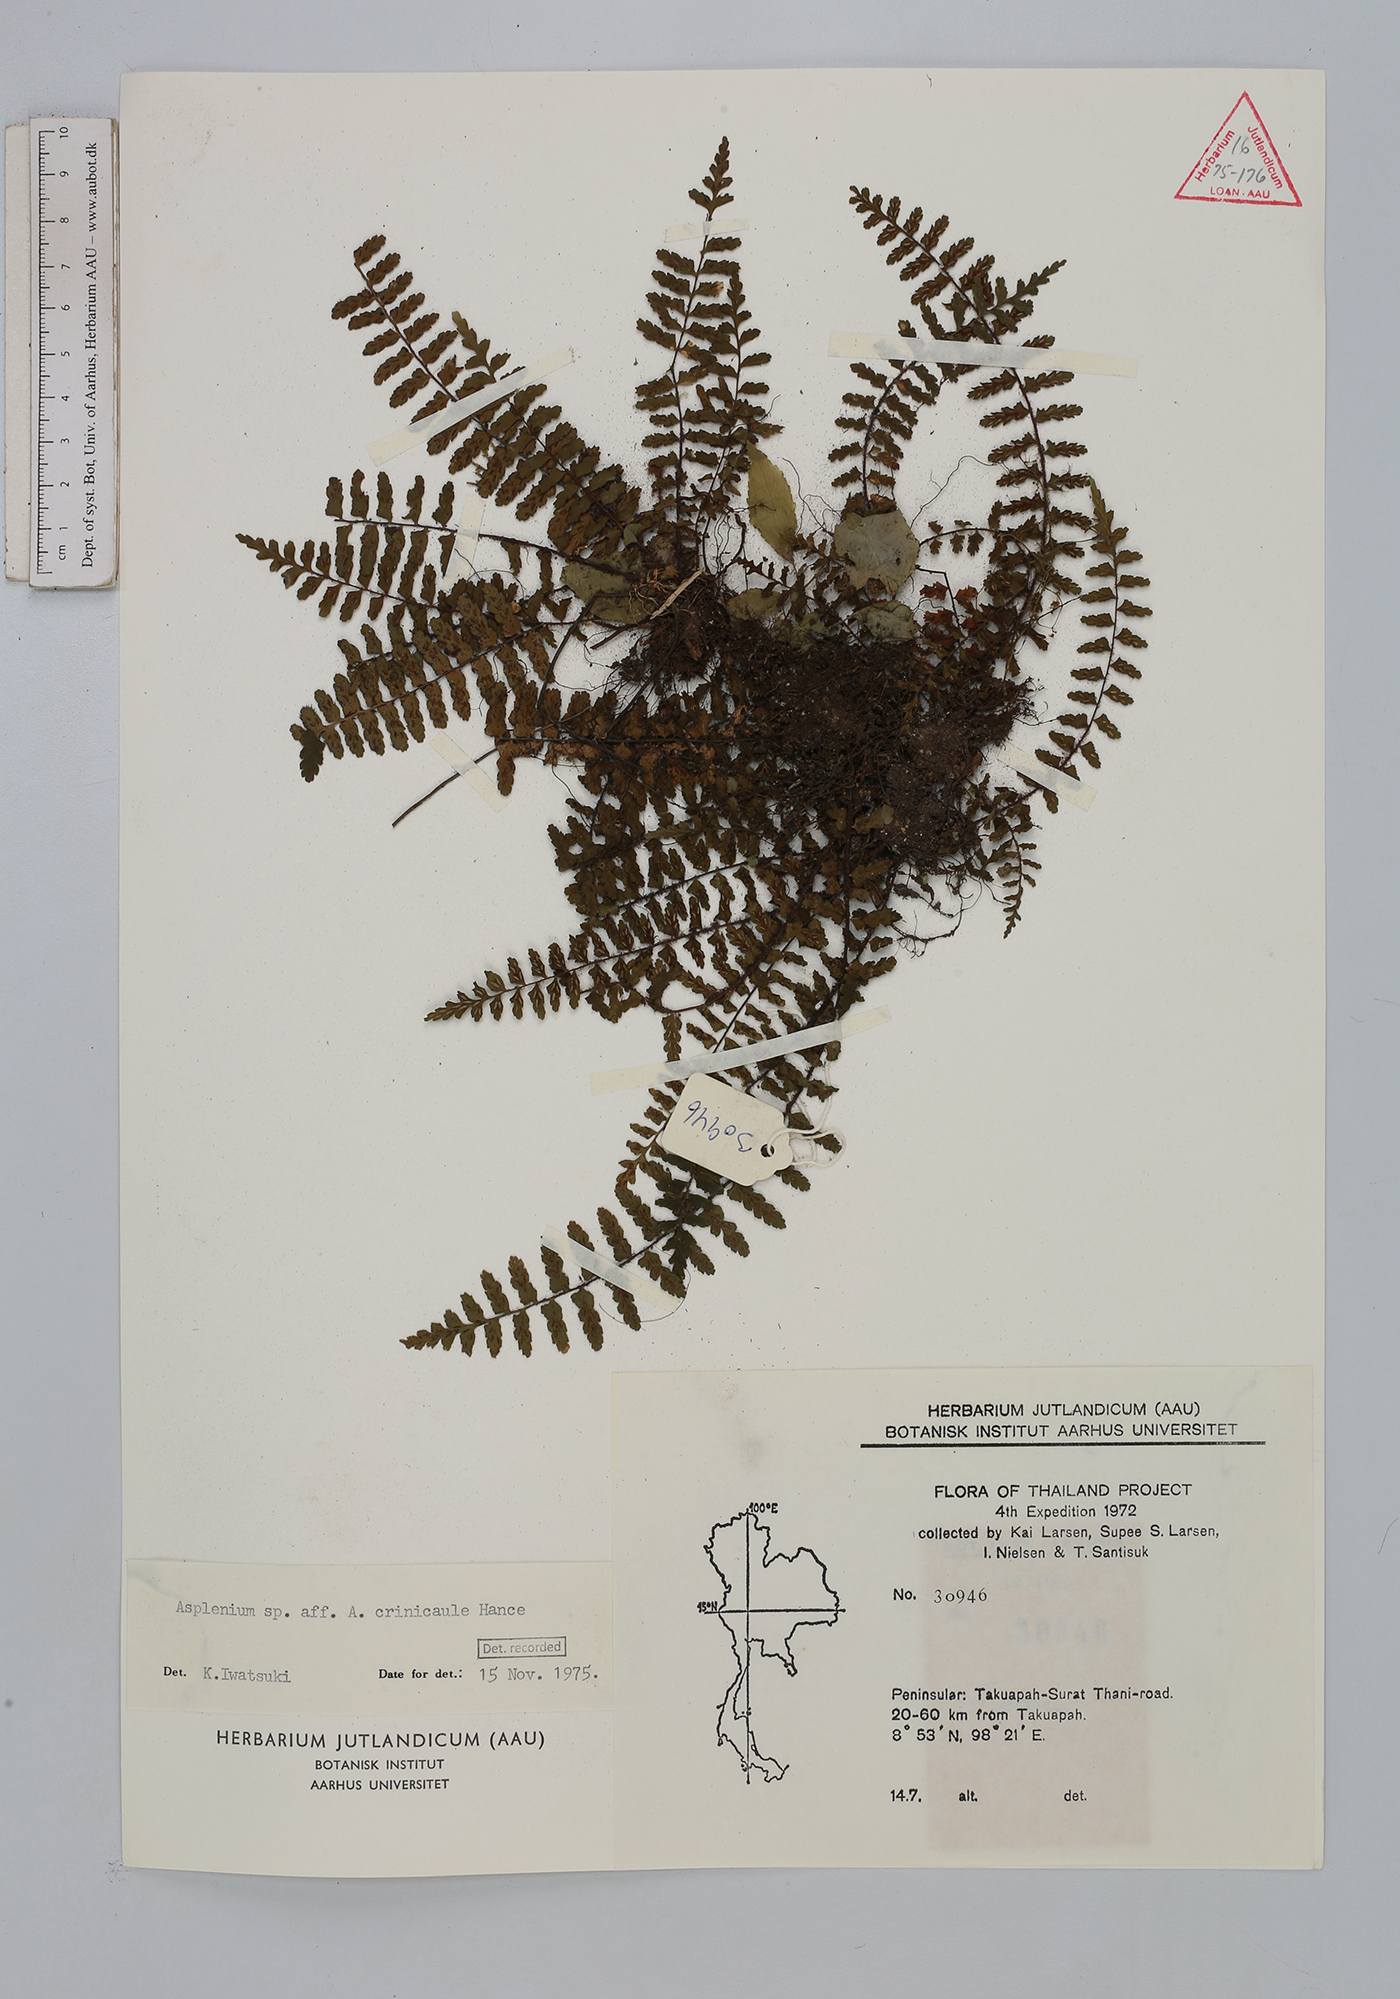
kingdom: Plantae
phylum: Tracheophyta
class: Polypodiopsida
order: Polypodiales
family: Aspleniaceae
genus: Asplenium
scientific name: Asplenium crinicaule
